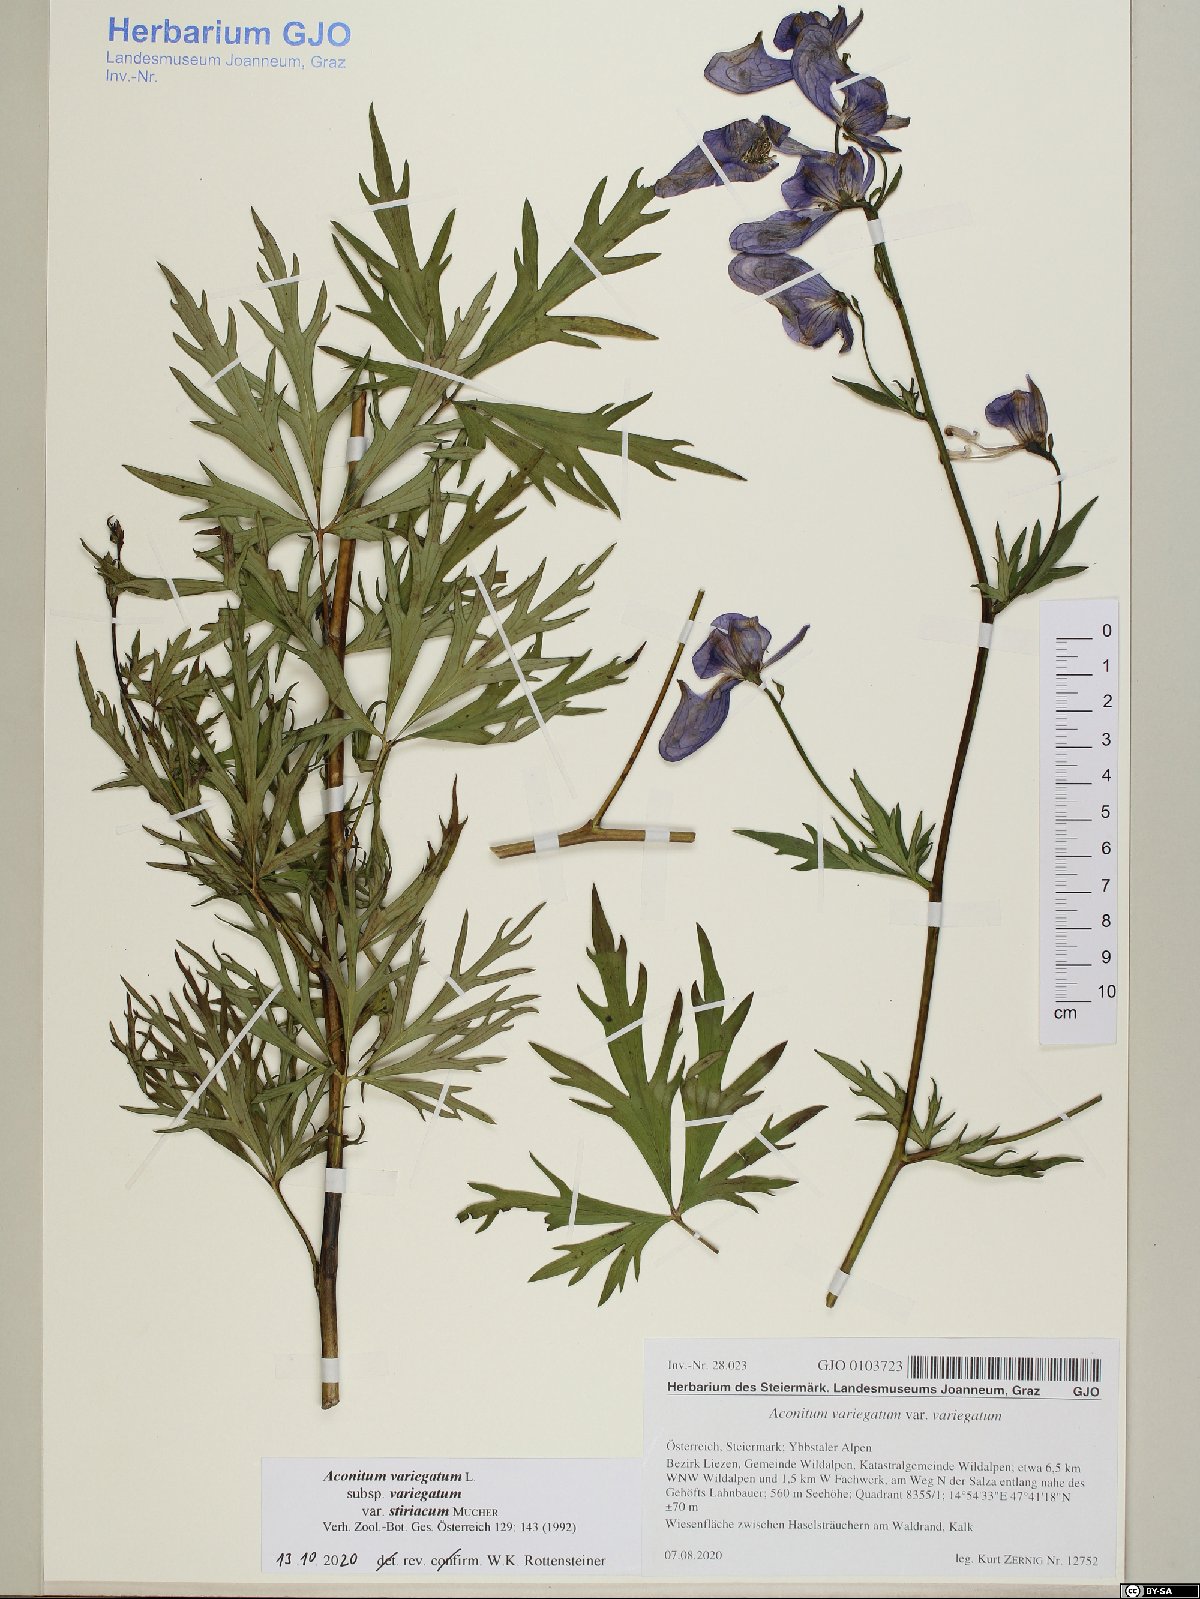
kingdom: Plantae
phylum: Tracheophyta
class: Magnoliopsida
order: Ranunculales
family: Ranunculaceae
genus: Aconitum
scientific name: Aconitum variegatum
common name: Manchurian monkshood
